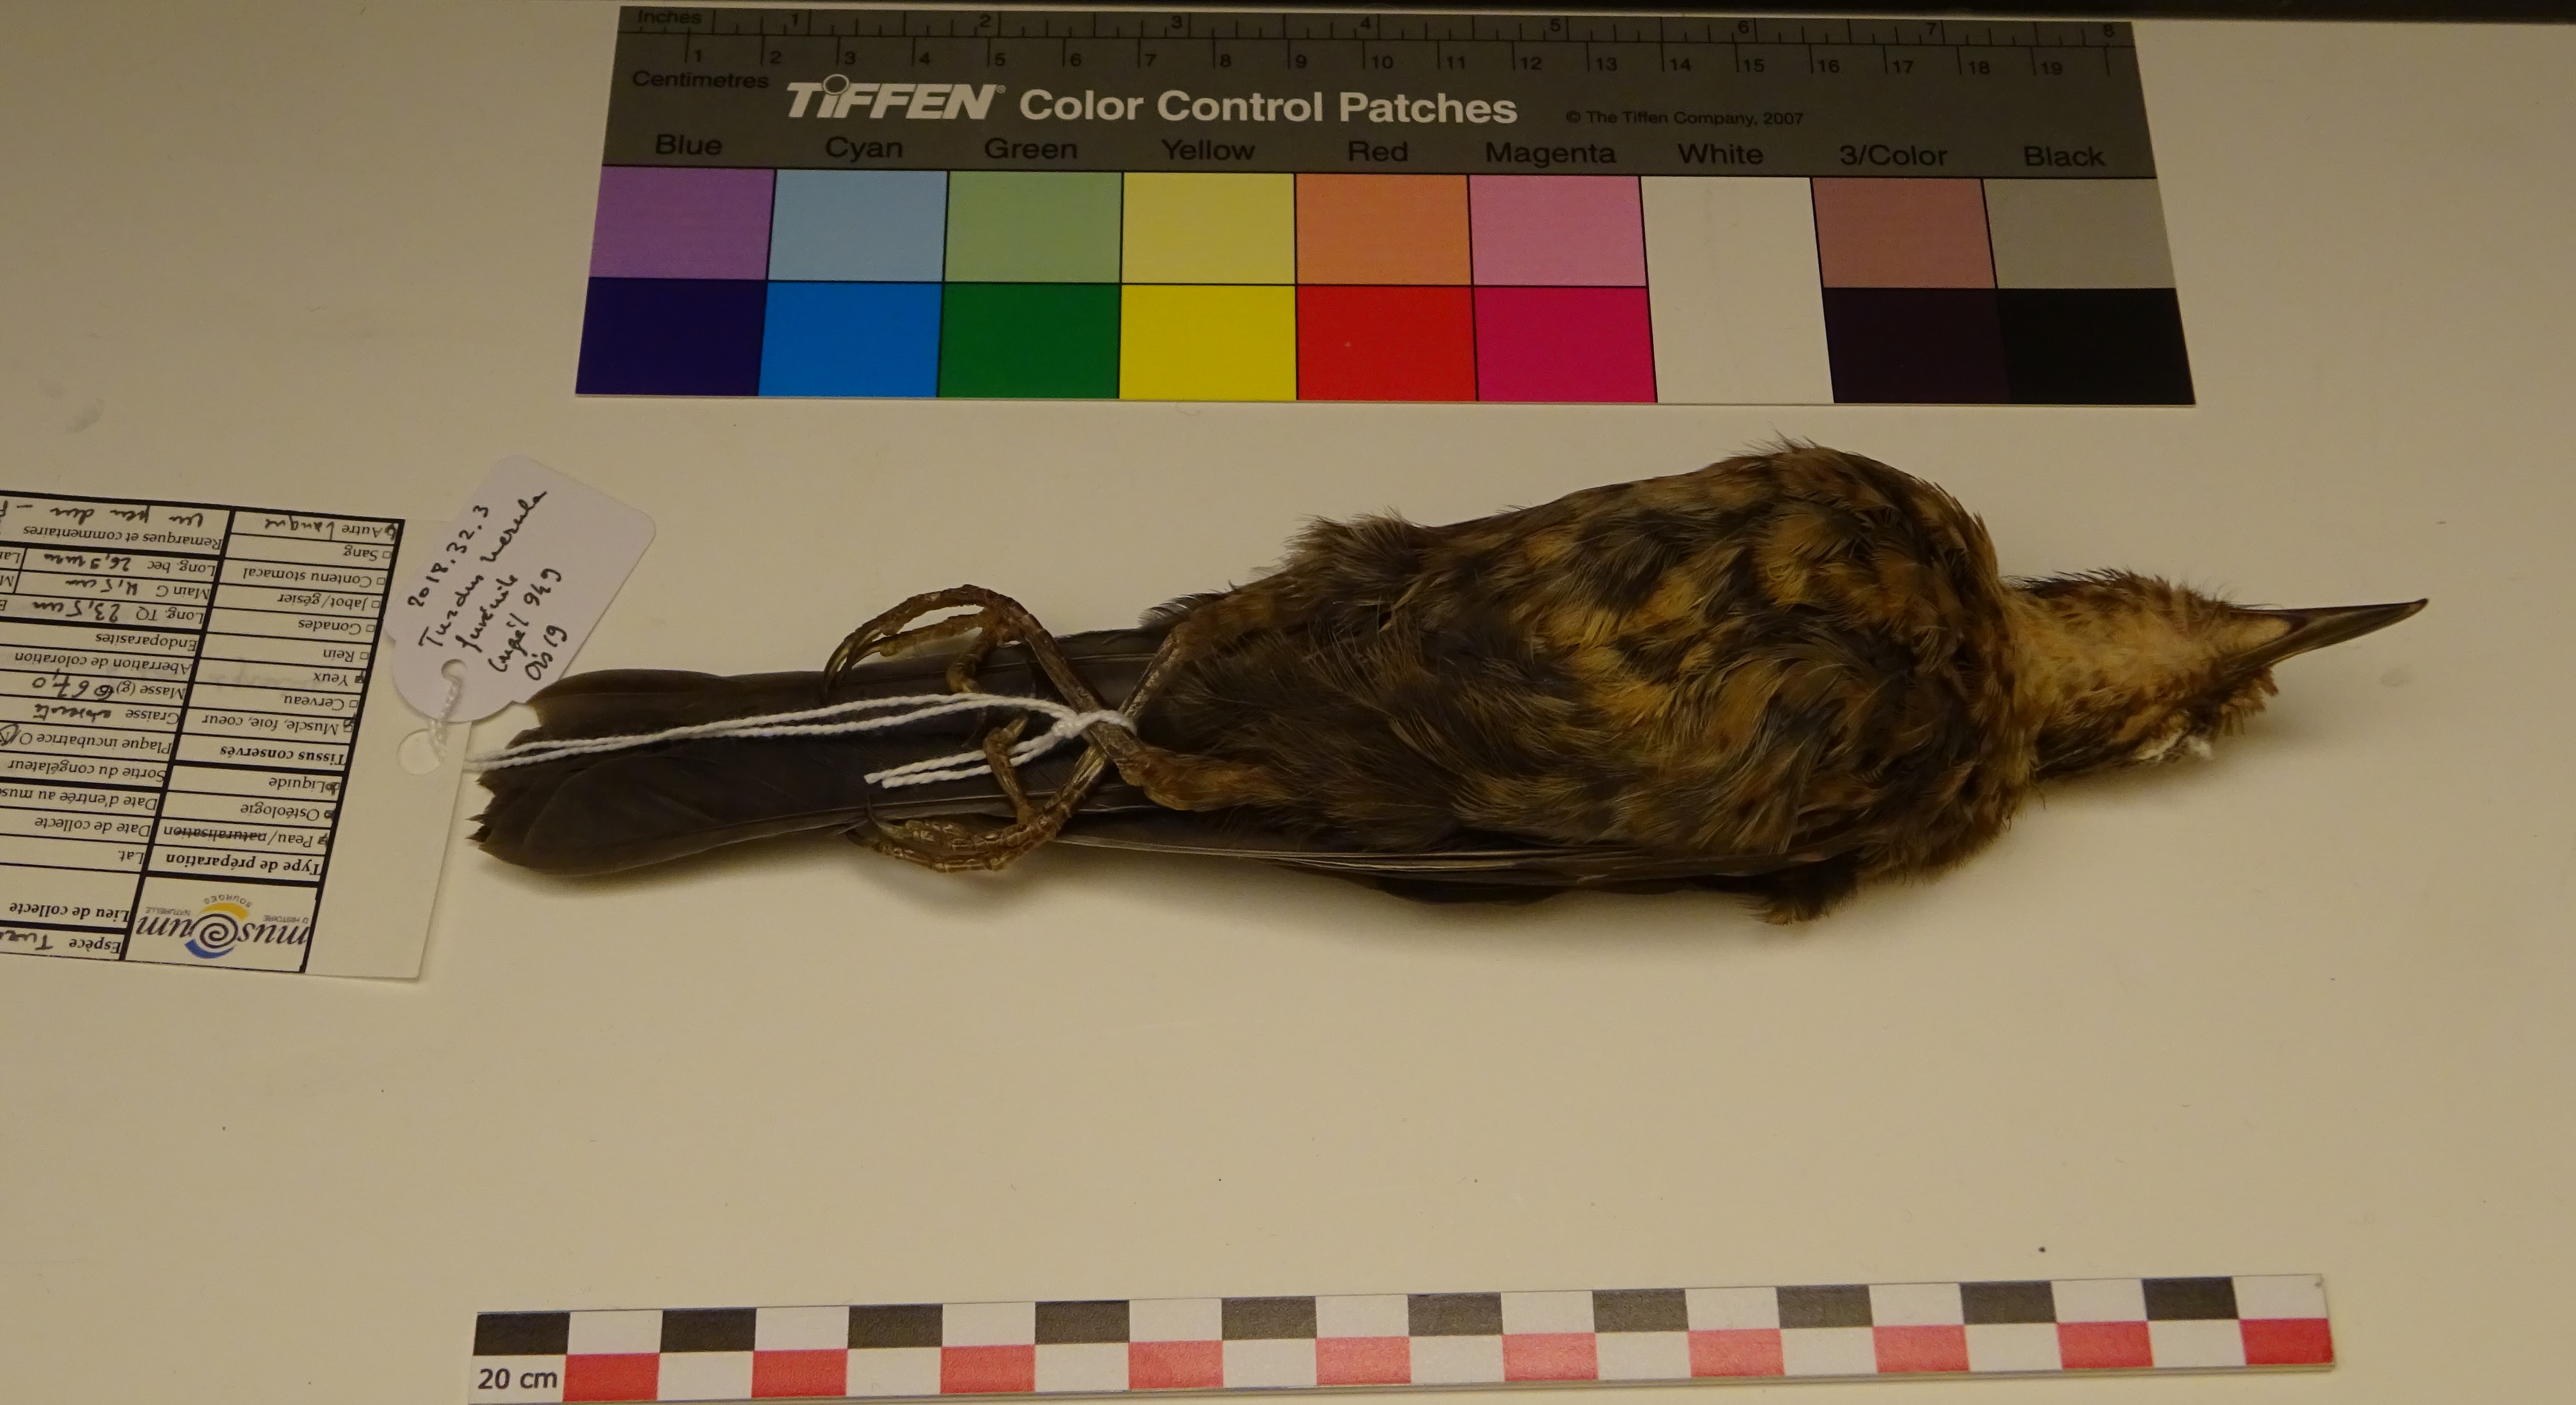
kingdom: Animalia
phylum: Chordata
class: Aves
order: Passeriformes
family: Turdidae
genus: Turdus
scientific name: Turdus merula
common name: Common blackbird
